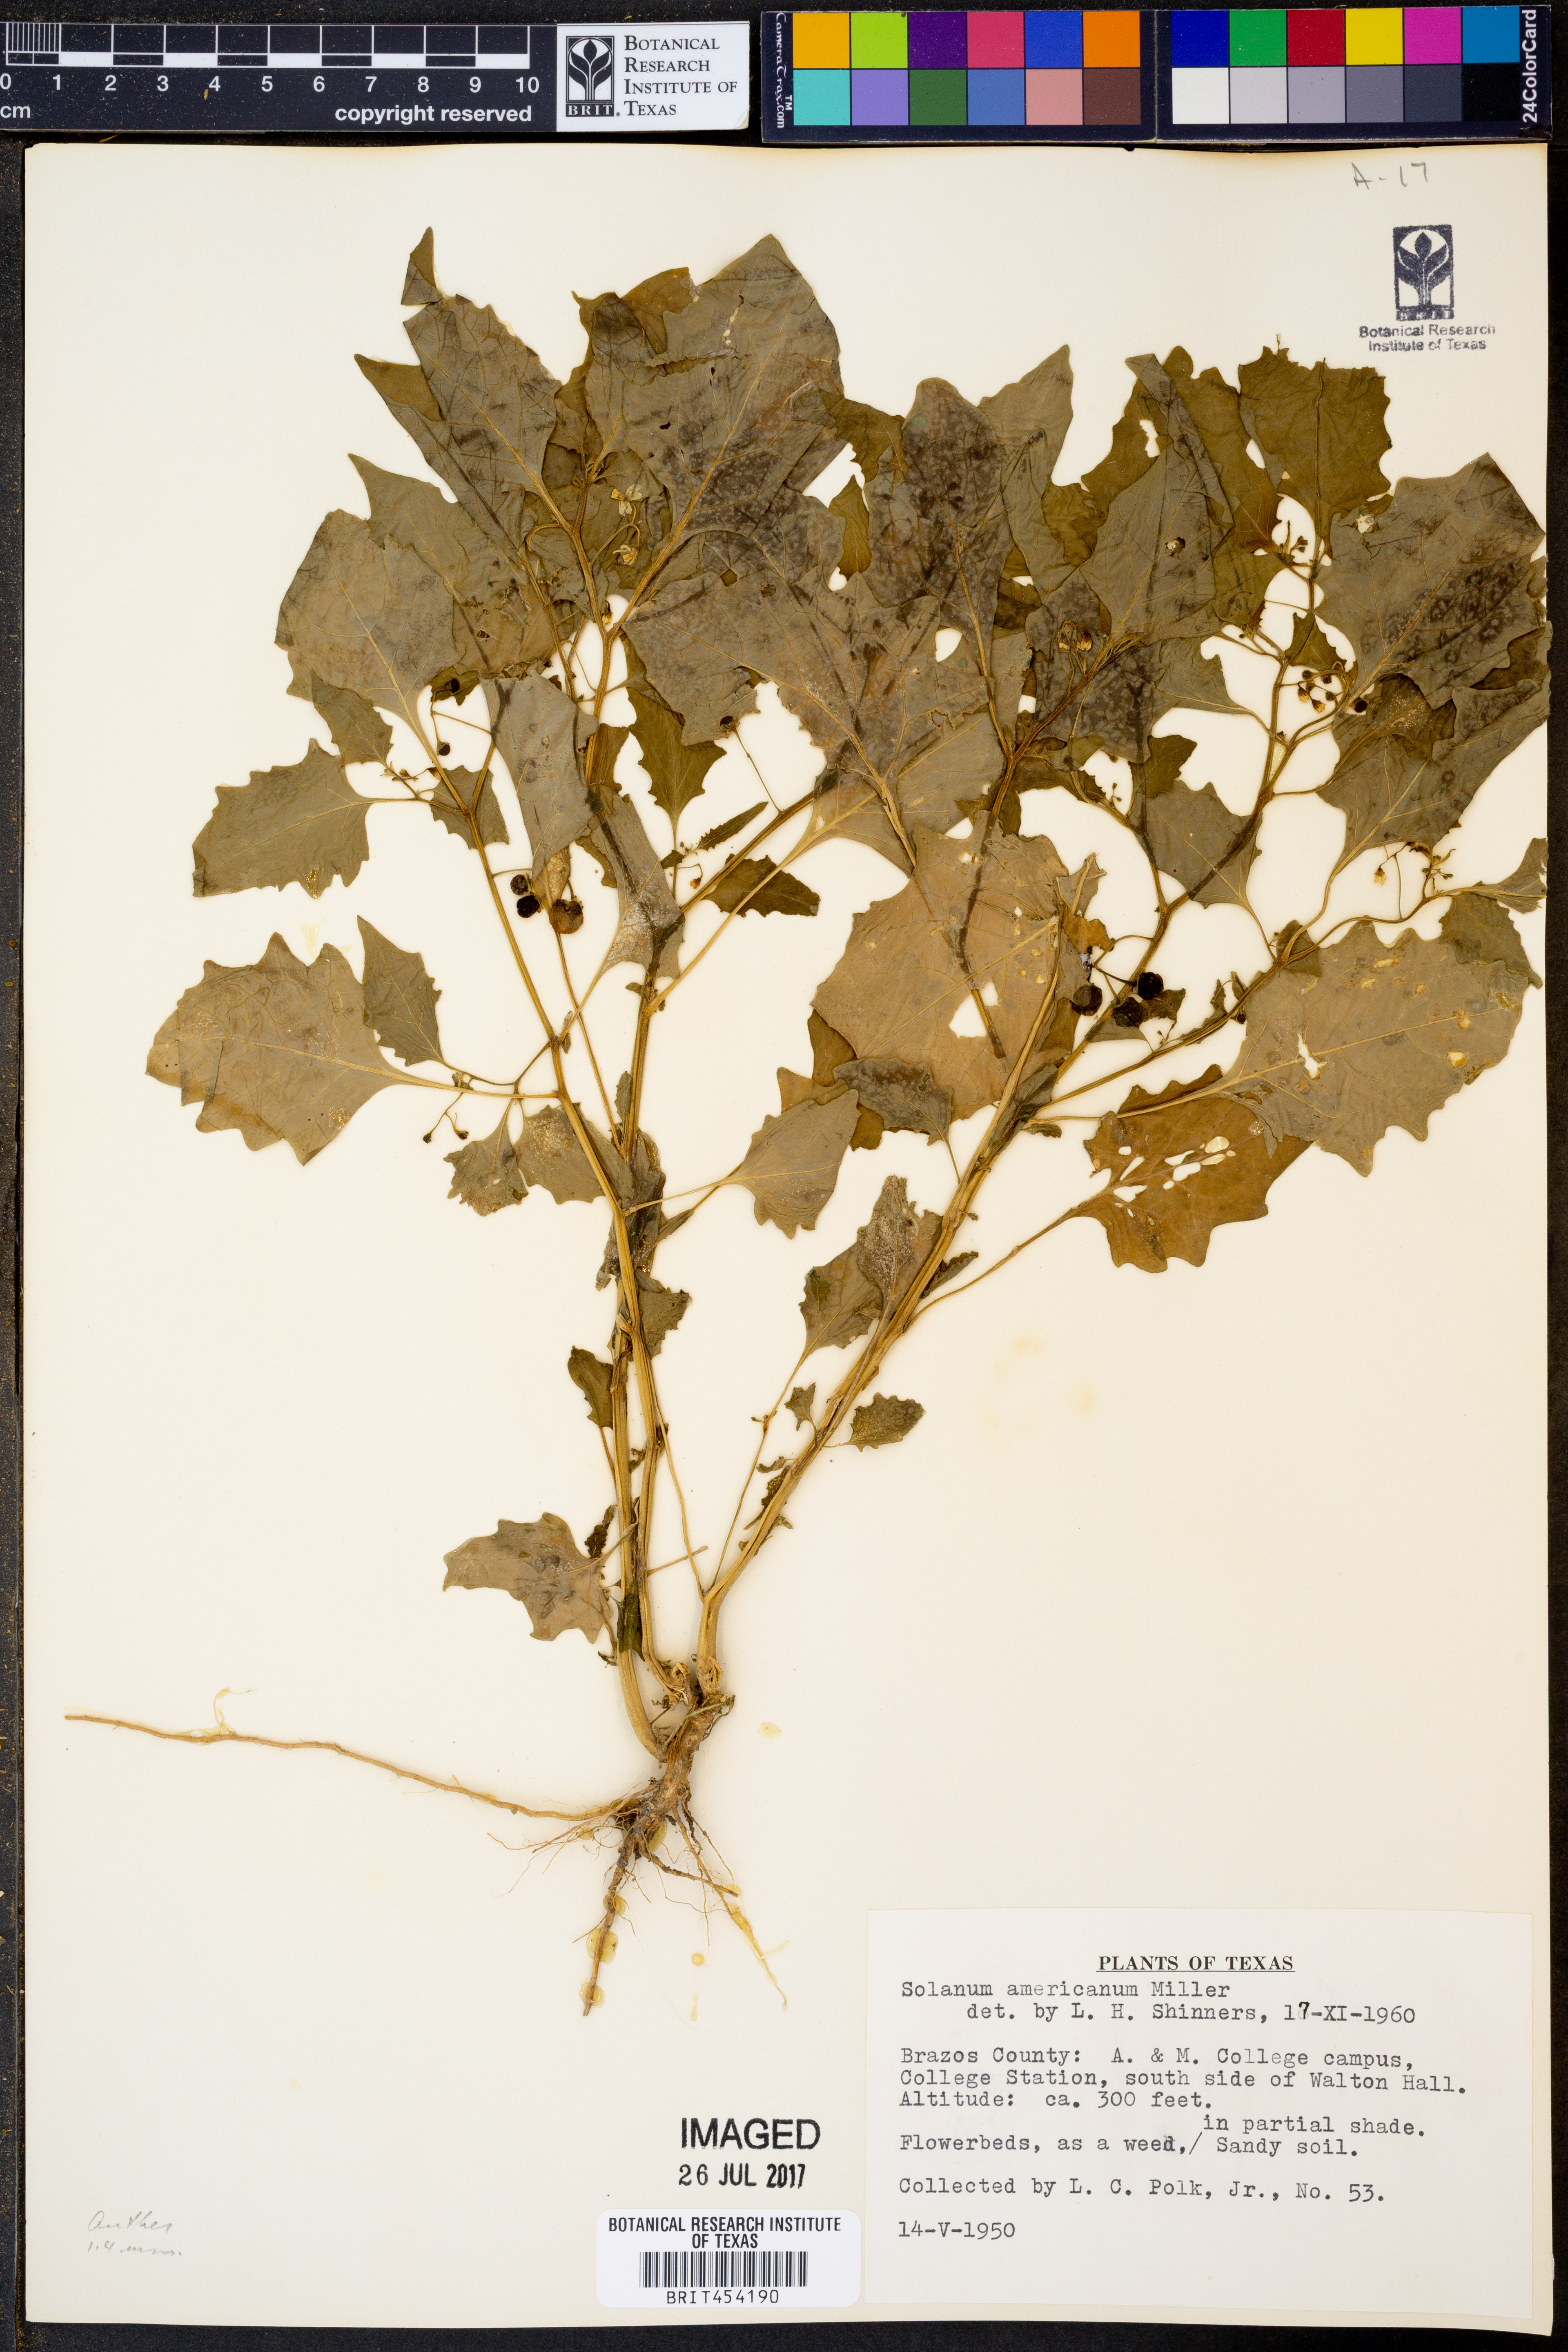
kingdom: Plantae
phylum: Tracheophyta
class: Magnoliopsida
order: Solanales
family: Solanaceae
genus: Solanum
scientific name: Solanum americanum
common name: American black nightshade
